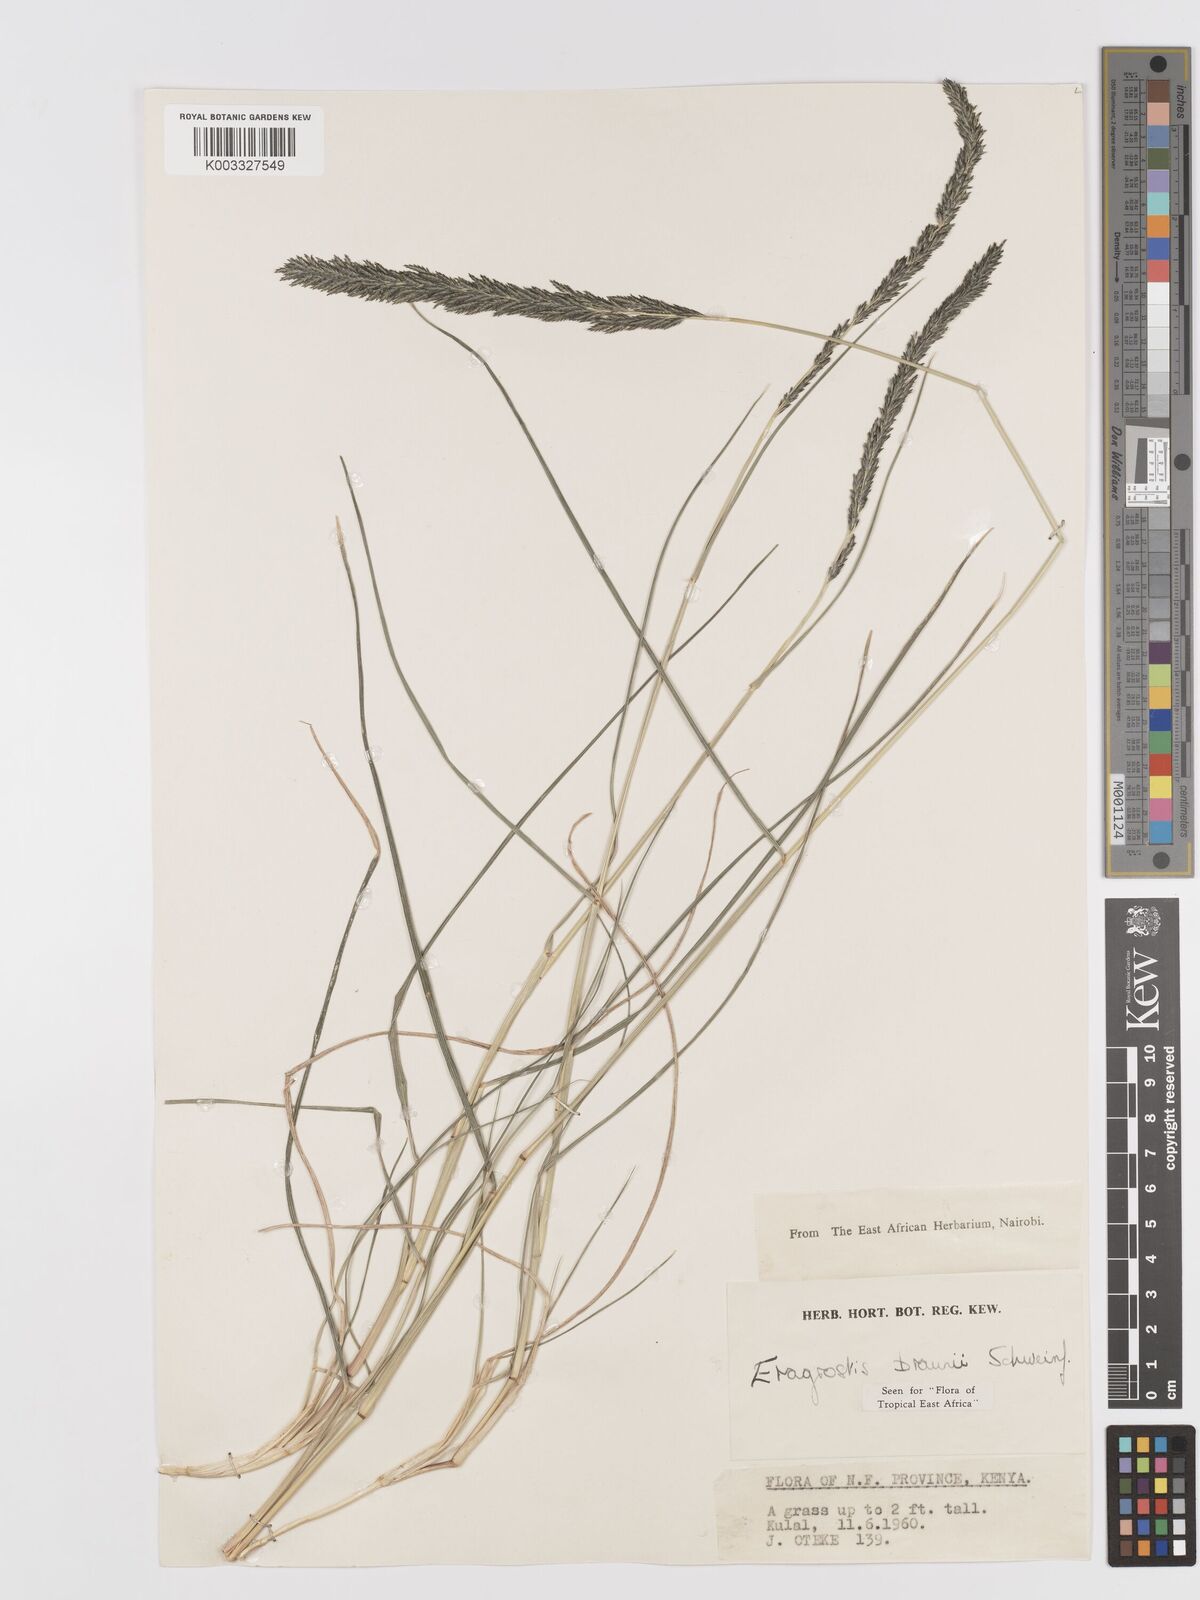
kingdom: Plantae
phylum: Tracheophyta
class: Liliopsida
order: Poales
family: Poaceae
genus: Eragrostis
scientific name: Eragrostis braunii
